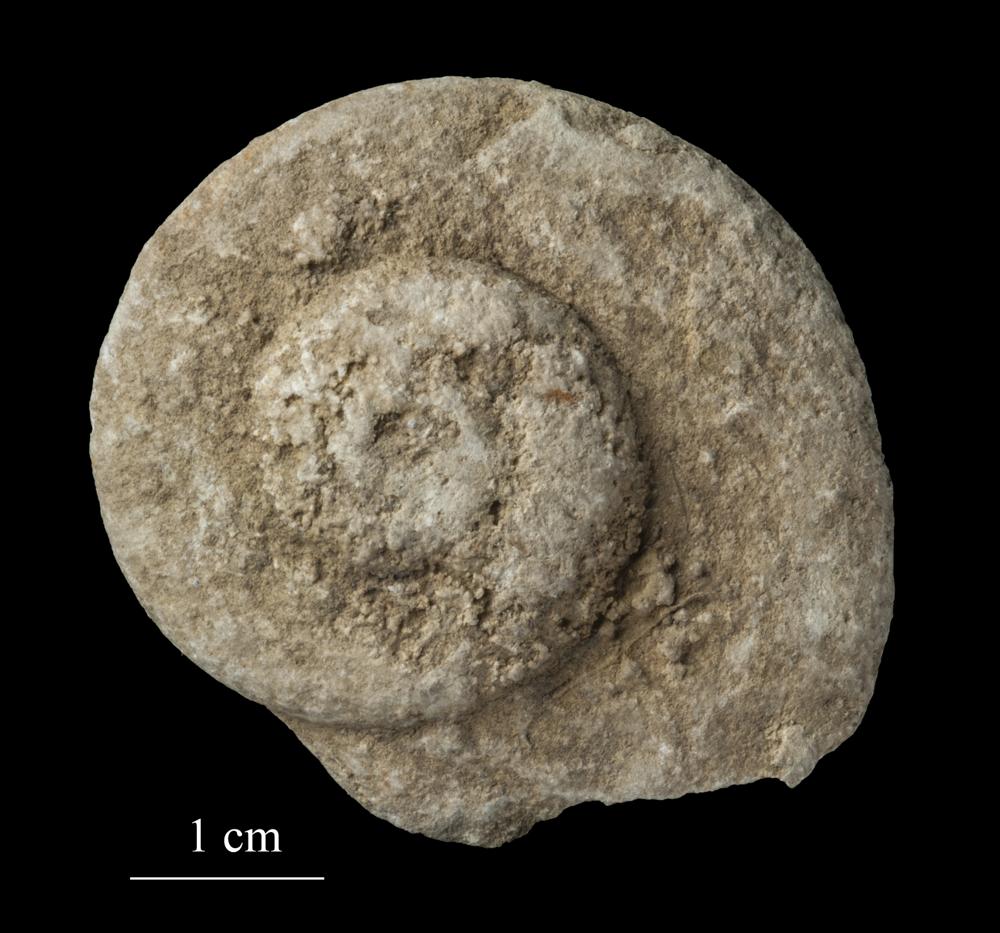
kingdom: Animalia
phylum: Mollusca
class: Gastropoda
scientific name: Gastropoda
